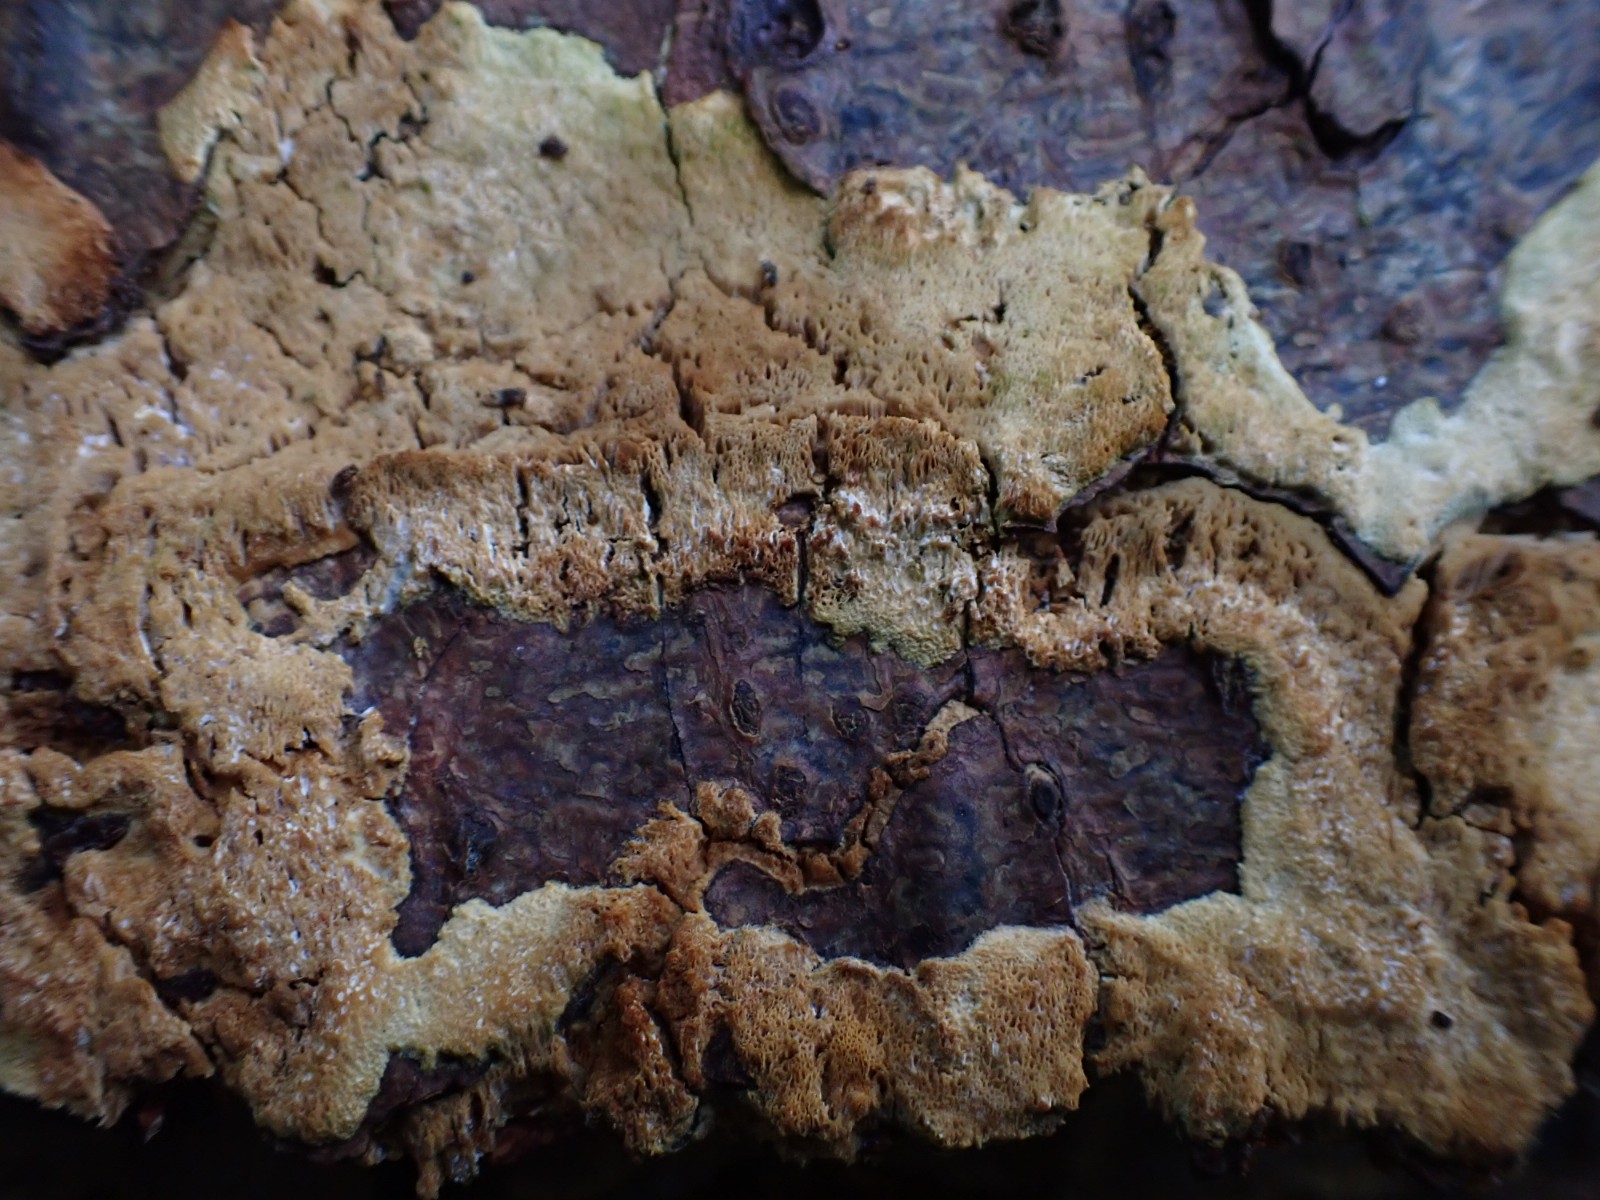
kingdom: Fungi
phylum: Basidiomycota
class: Agaricomycetes
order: Polyporales
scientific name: Polyporales
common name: poresvampordenen
